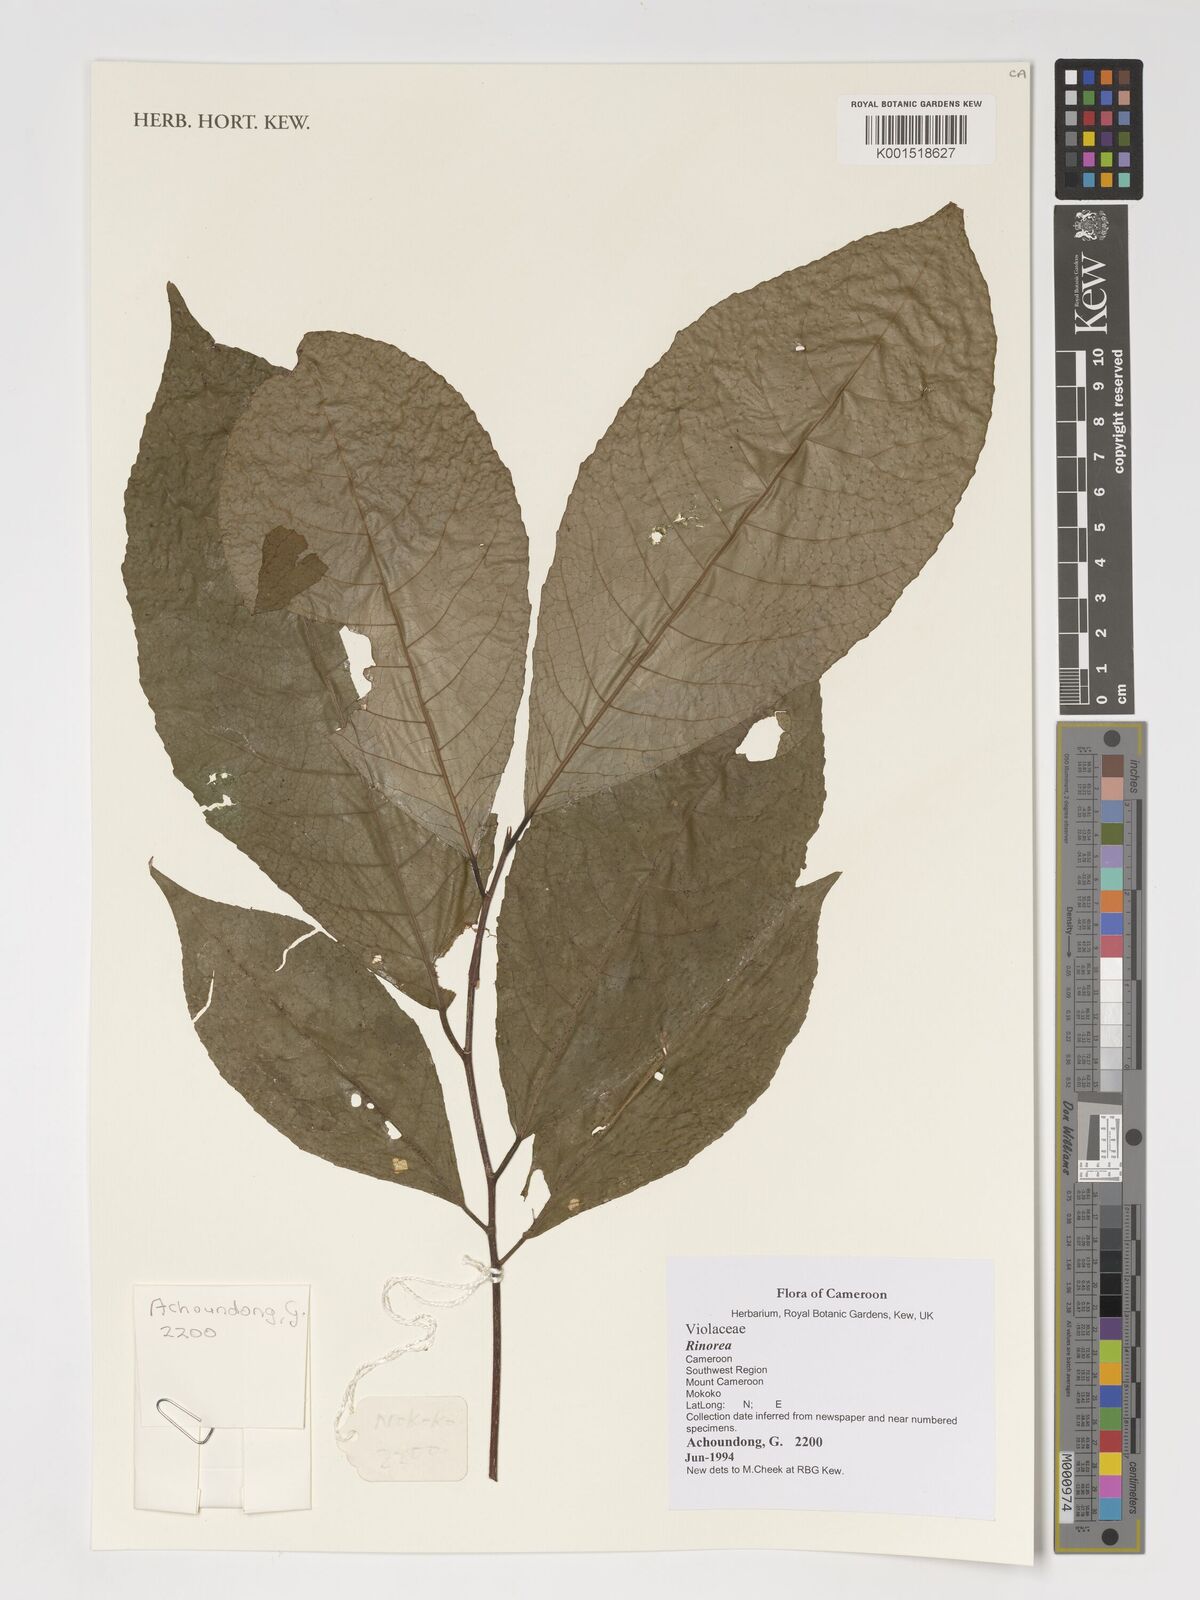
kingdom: Plantae
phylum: Tracheophyta
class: Magnoliopsida
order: Malpighiales
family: Violaceae
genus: Rinorea
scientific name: Rinorea
